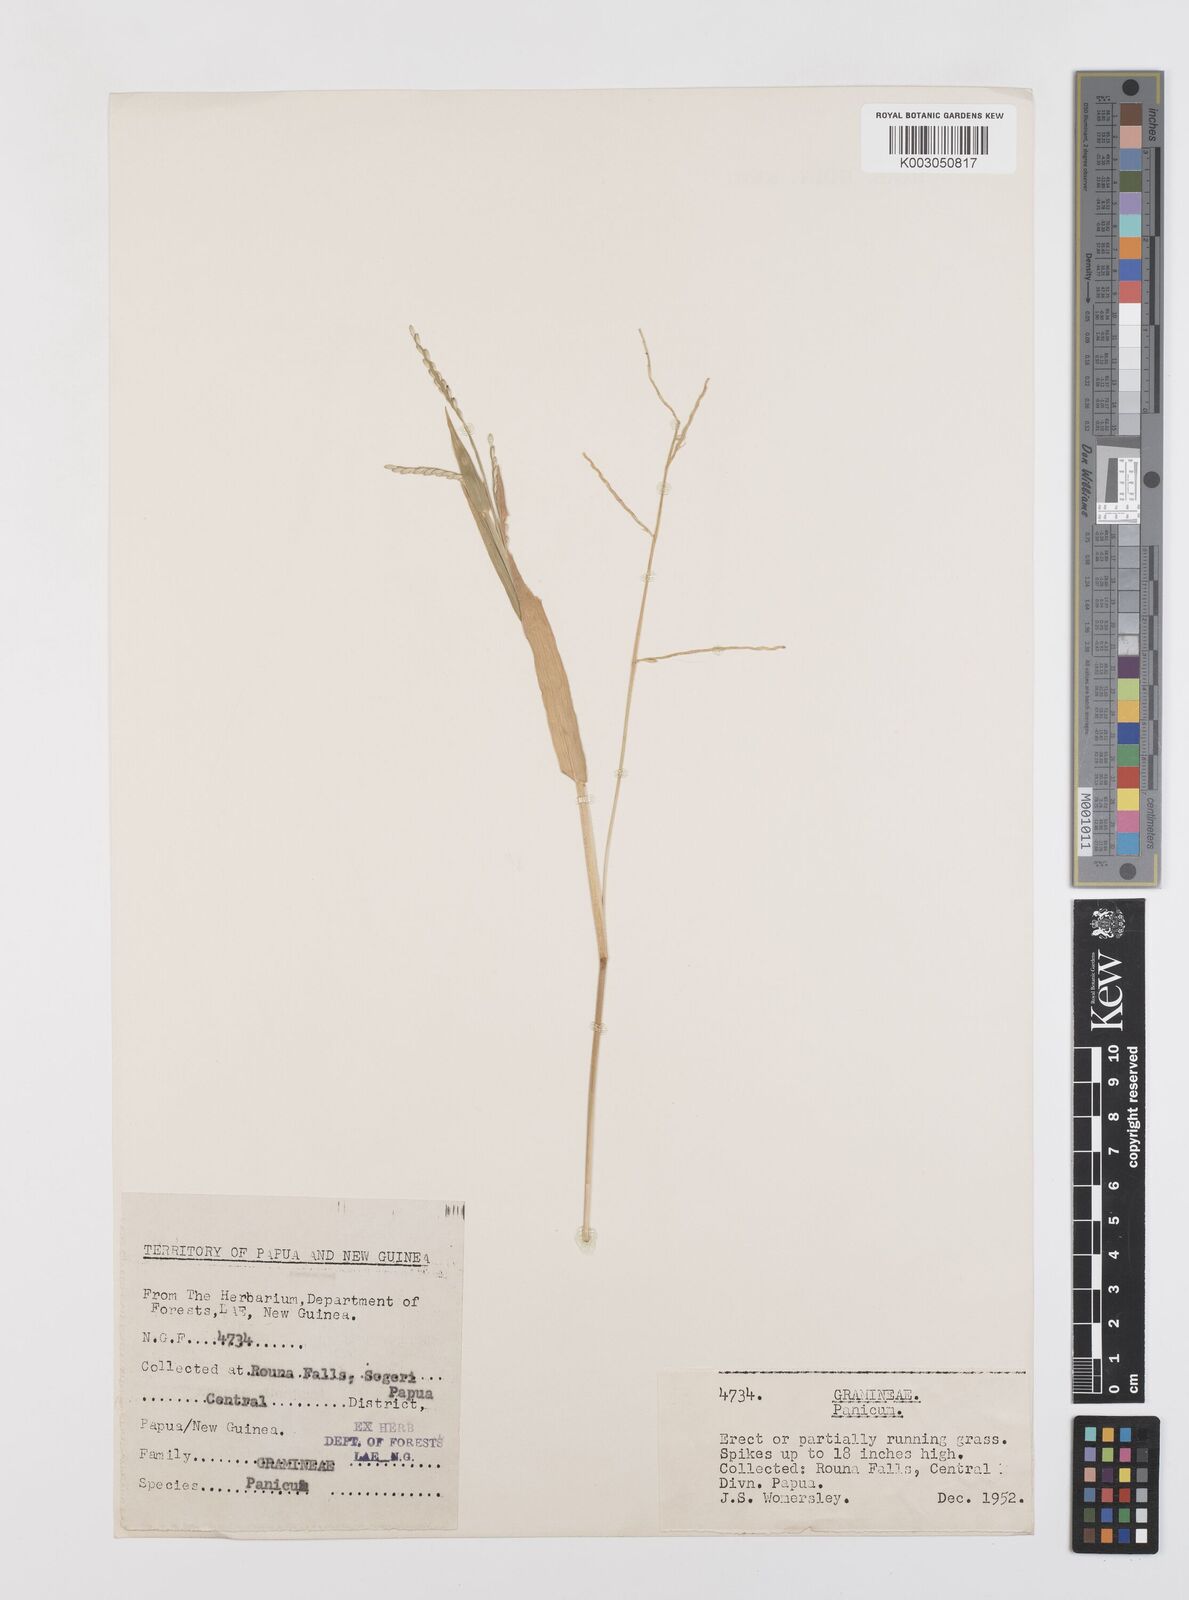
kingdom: Plantae
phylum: Tracheophyta
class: Liliopsida
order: Poales
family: Poaceae
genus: Urochloa
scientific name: Urochloa subquadripara
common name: Armgrass millet
